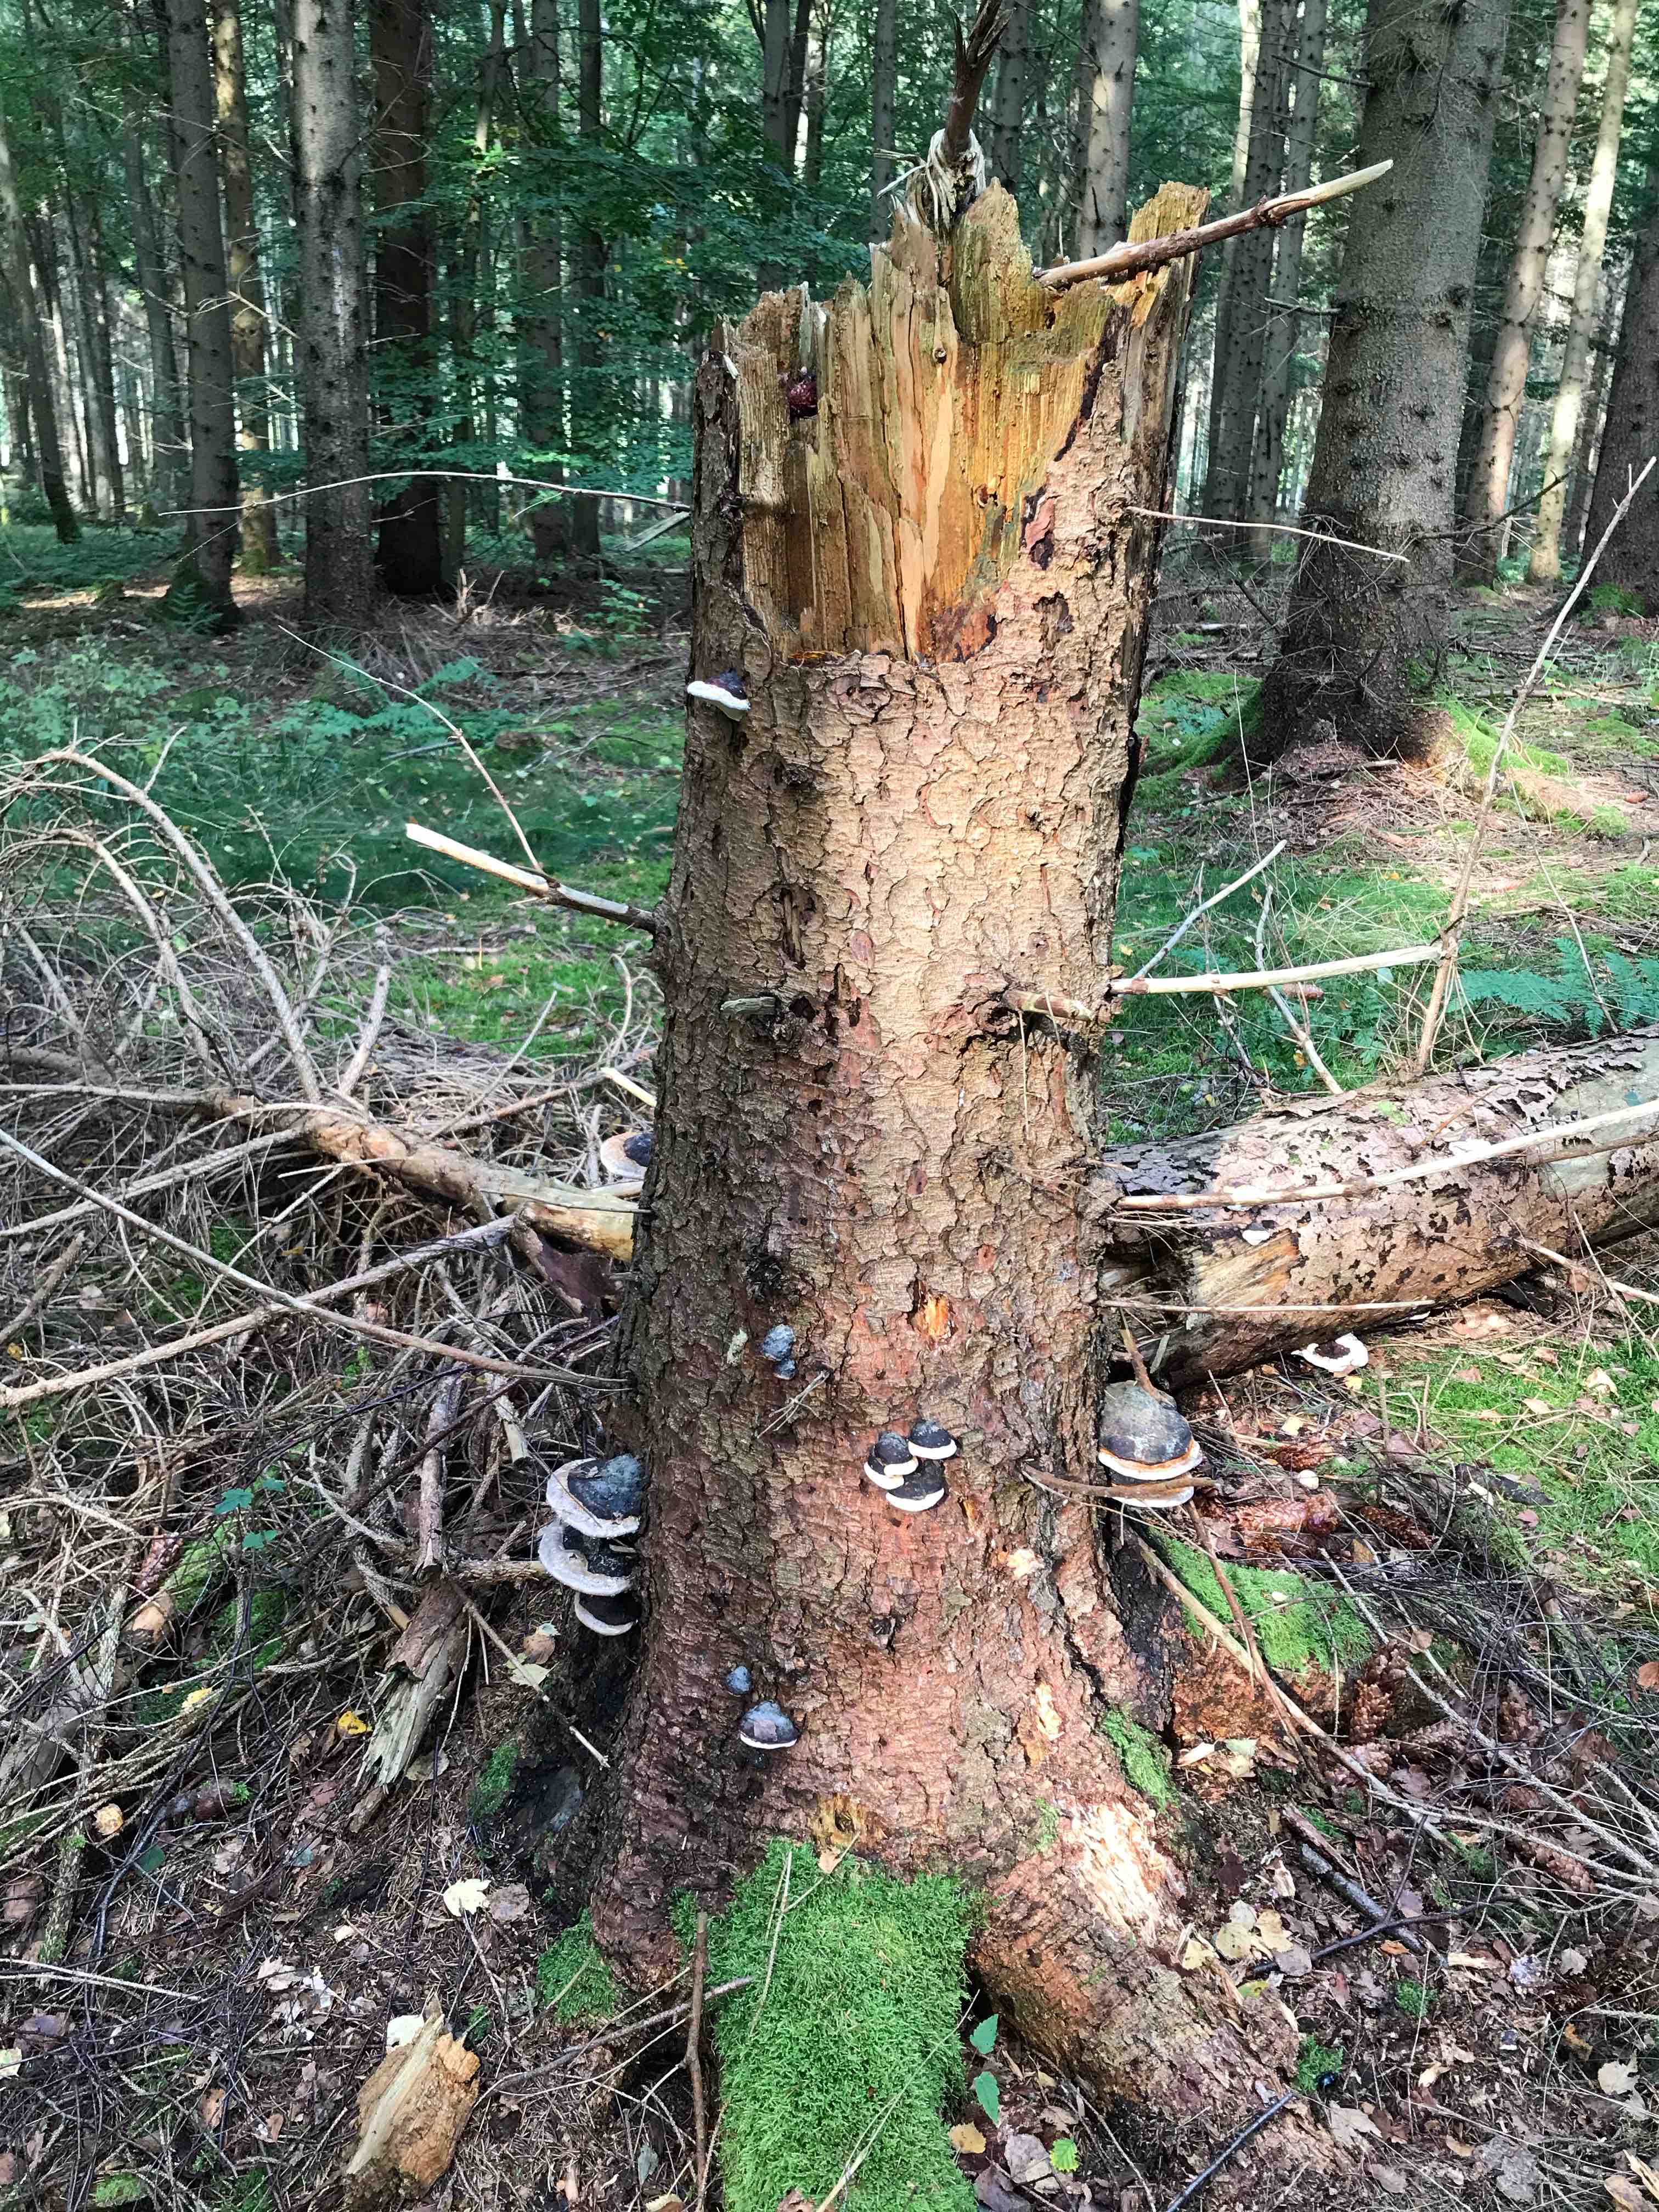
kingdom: Fungi
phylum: Basidiomycota
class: Agaricomycetes
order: Polyporales
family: Fomitopsidaceae
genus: Fomitopsis
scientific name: Fomitopsis pinicola
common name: randbæltet hovporesvamp
